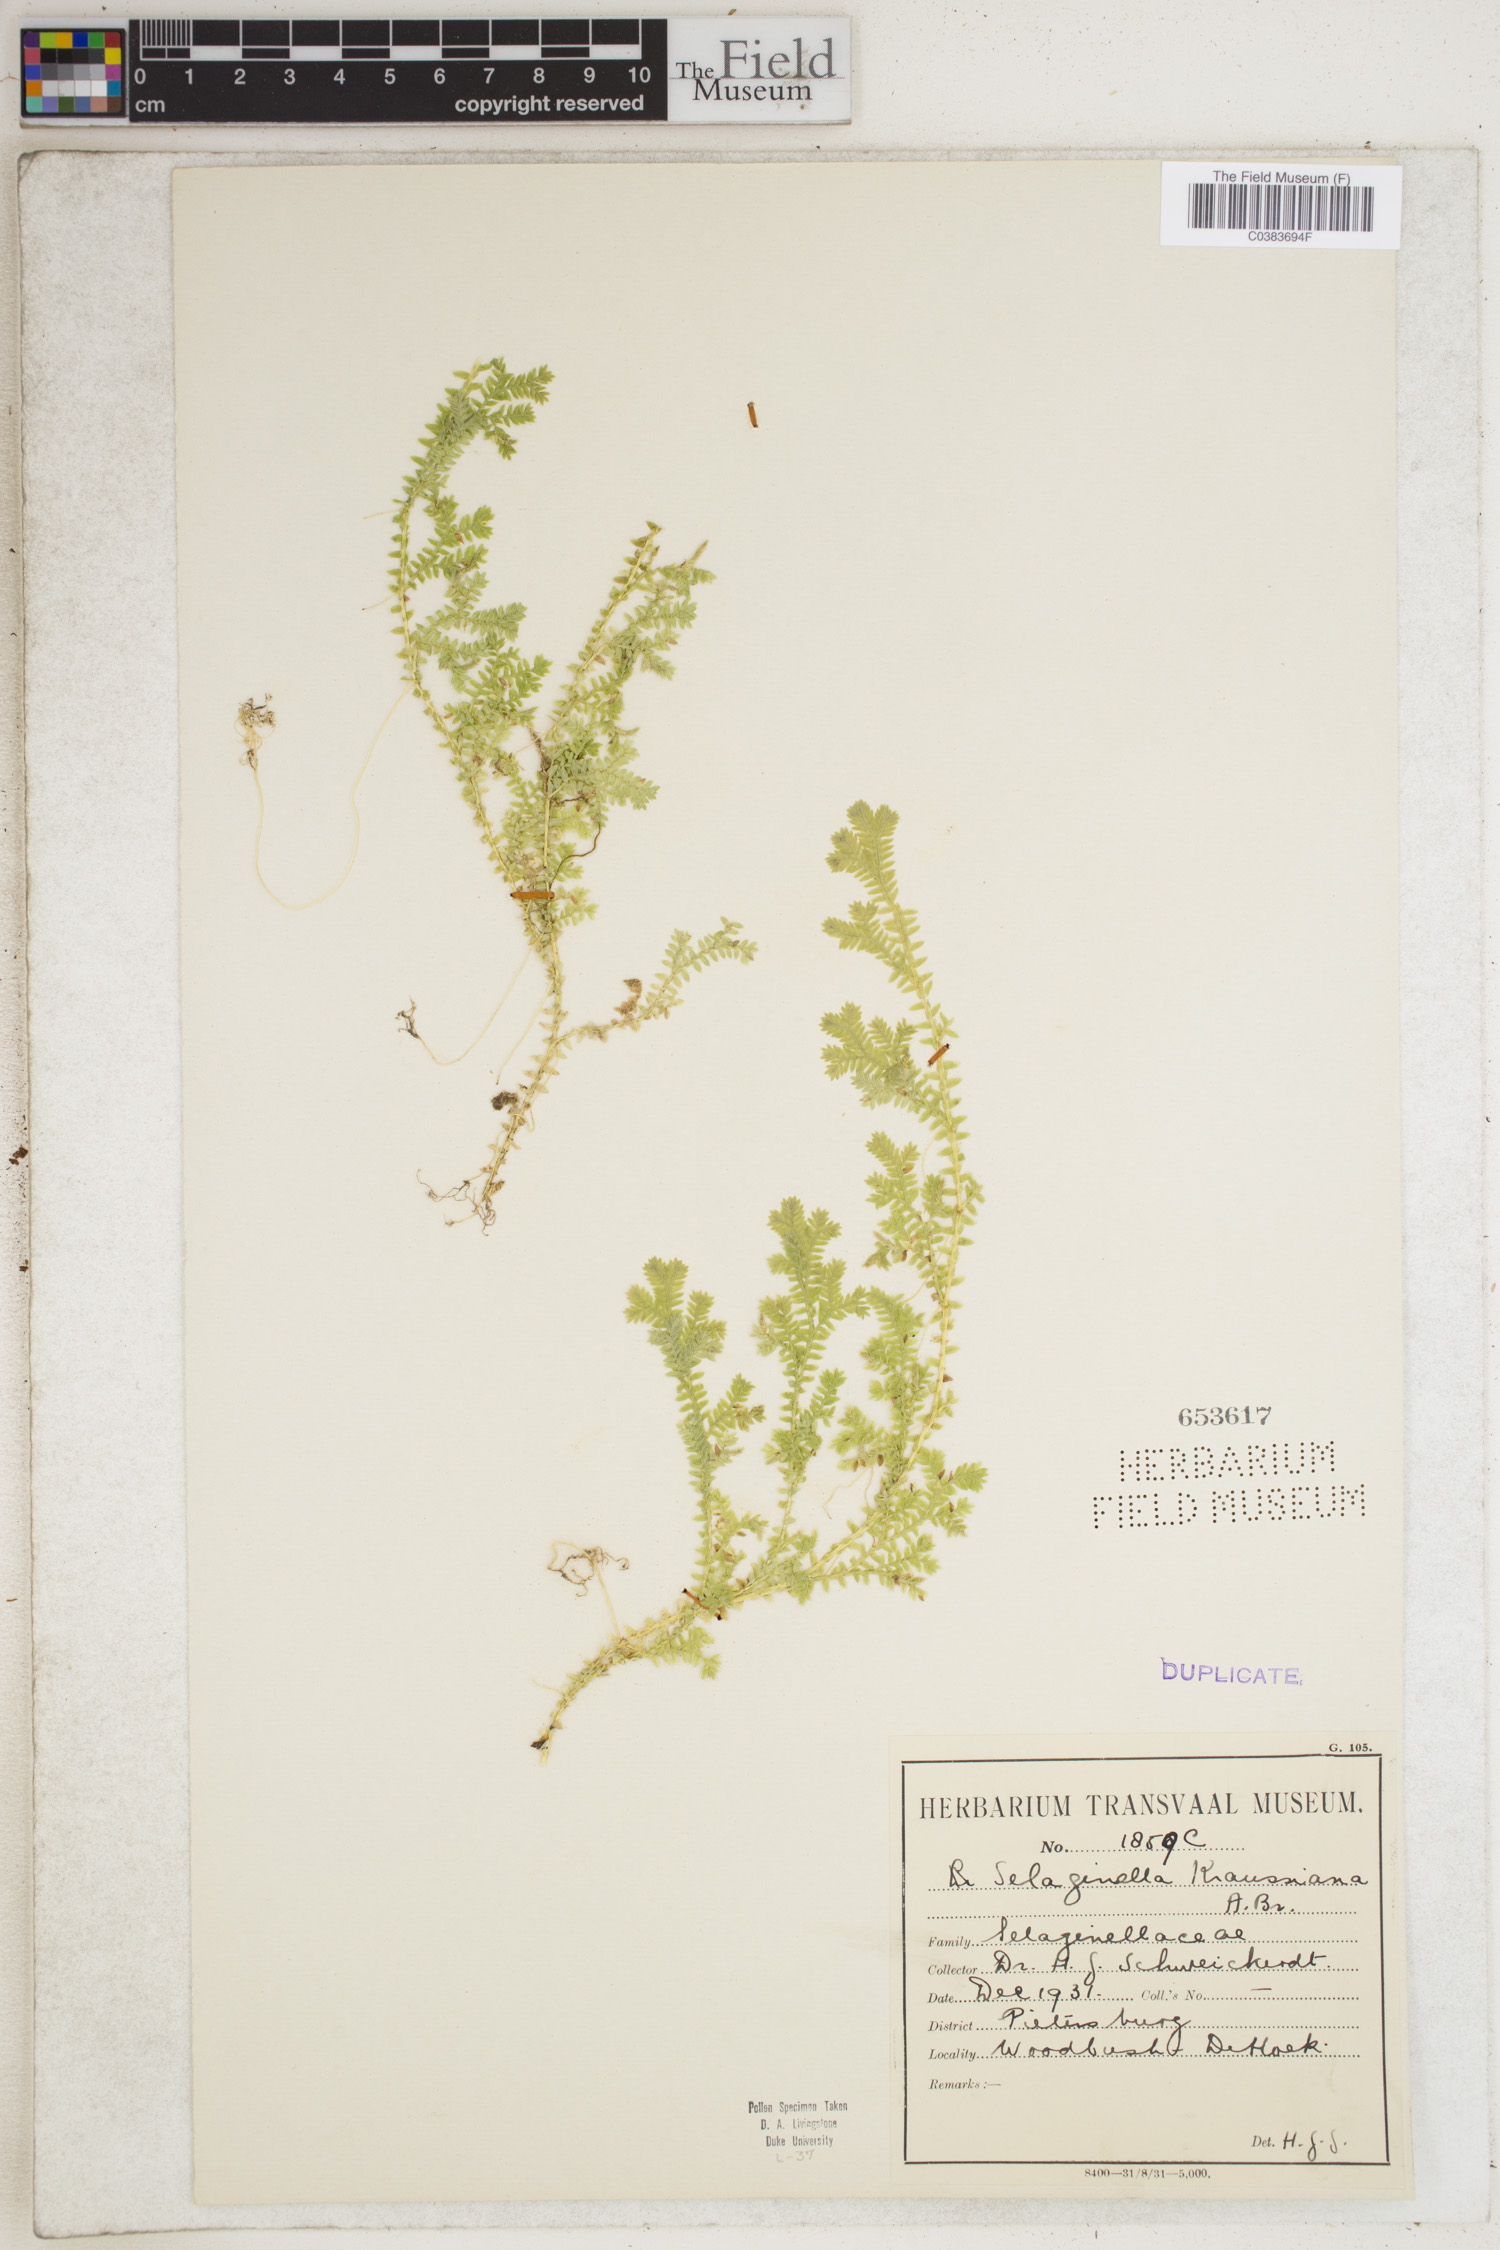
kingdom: Plantae
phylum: Tracheophyta
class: Lycopodiopsida
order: Selaginellales
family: Selaginellaceae
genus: Selaginella
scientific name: Selaginella kraussiana
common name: Krauss' spikemoss
